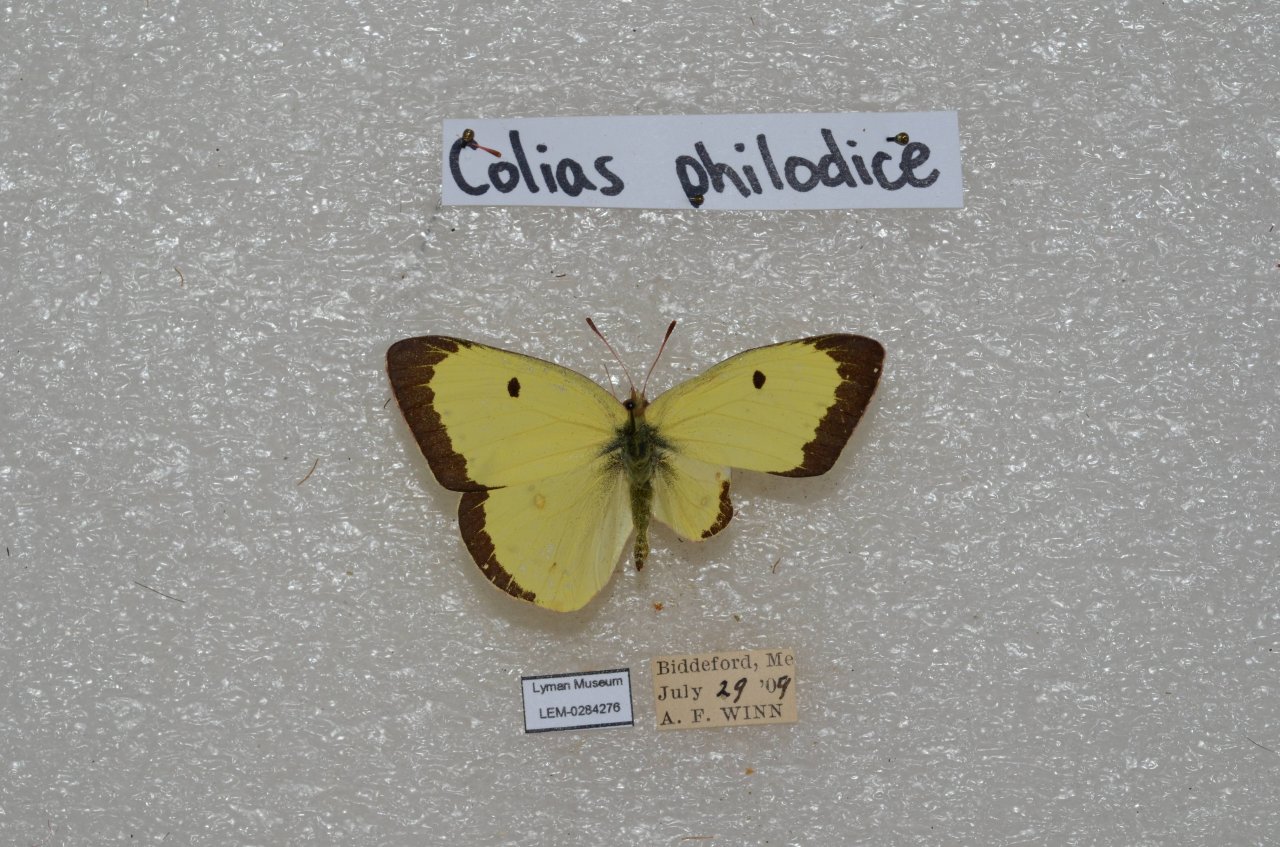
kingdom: Animalia
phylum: Arthropoda
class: Insecta
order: Lepidoptera
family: Pieridae
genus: Colias
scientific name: Colias philodice
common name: Clouded Sulphur
